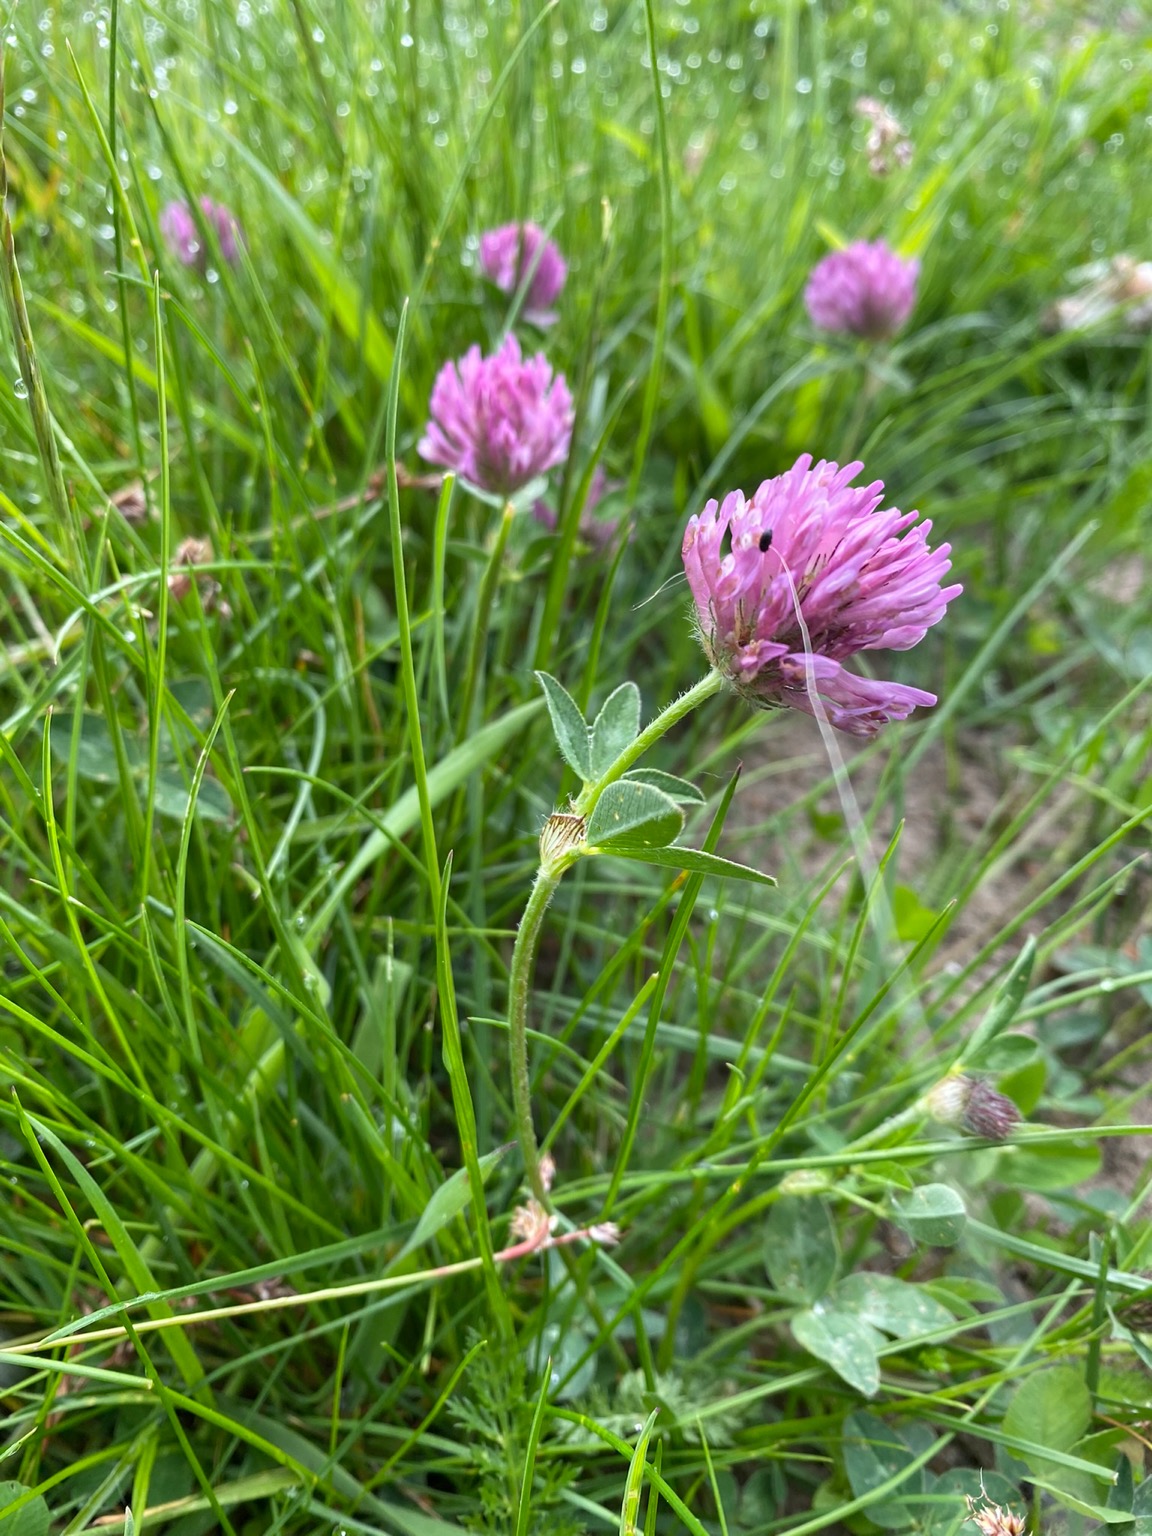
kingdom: Plantae
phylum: Tracheophyta
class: Magnoliopsida
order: Fabales
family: Fabaceae
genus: Trifolium
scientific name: Trifolium pratense
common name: Rød-kløver
